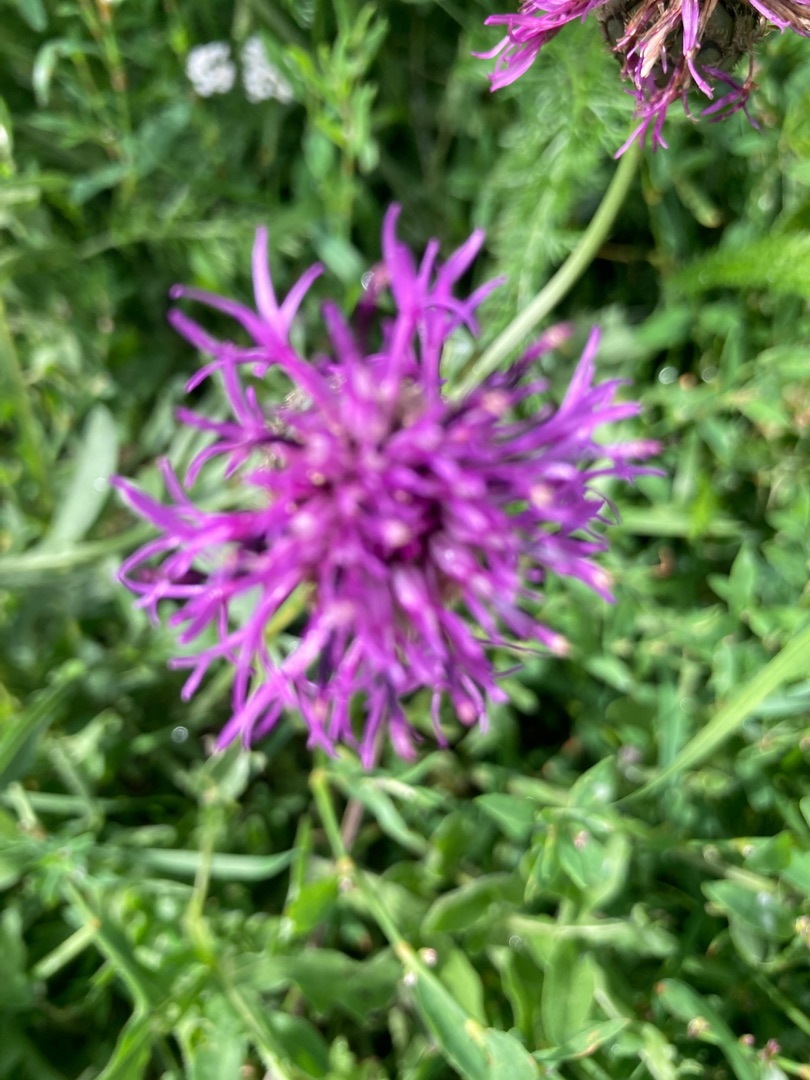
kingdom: Plantae
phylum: Tracheophyta
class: Magnoliopsida
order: Asterales
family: Asteraceae
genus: Centaurea
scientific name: Centaurea scabiosa
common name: Stor knopurt
